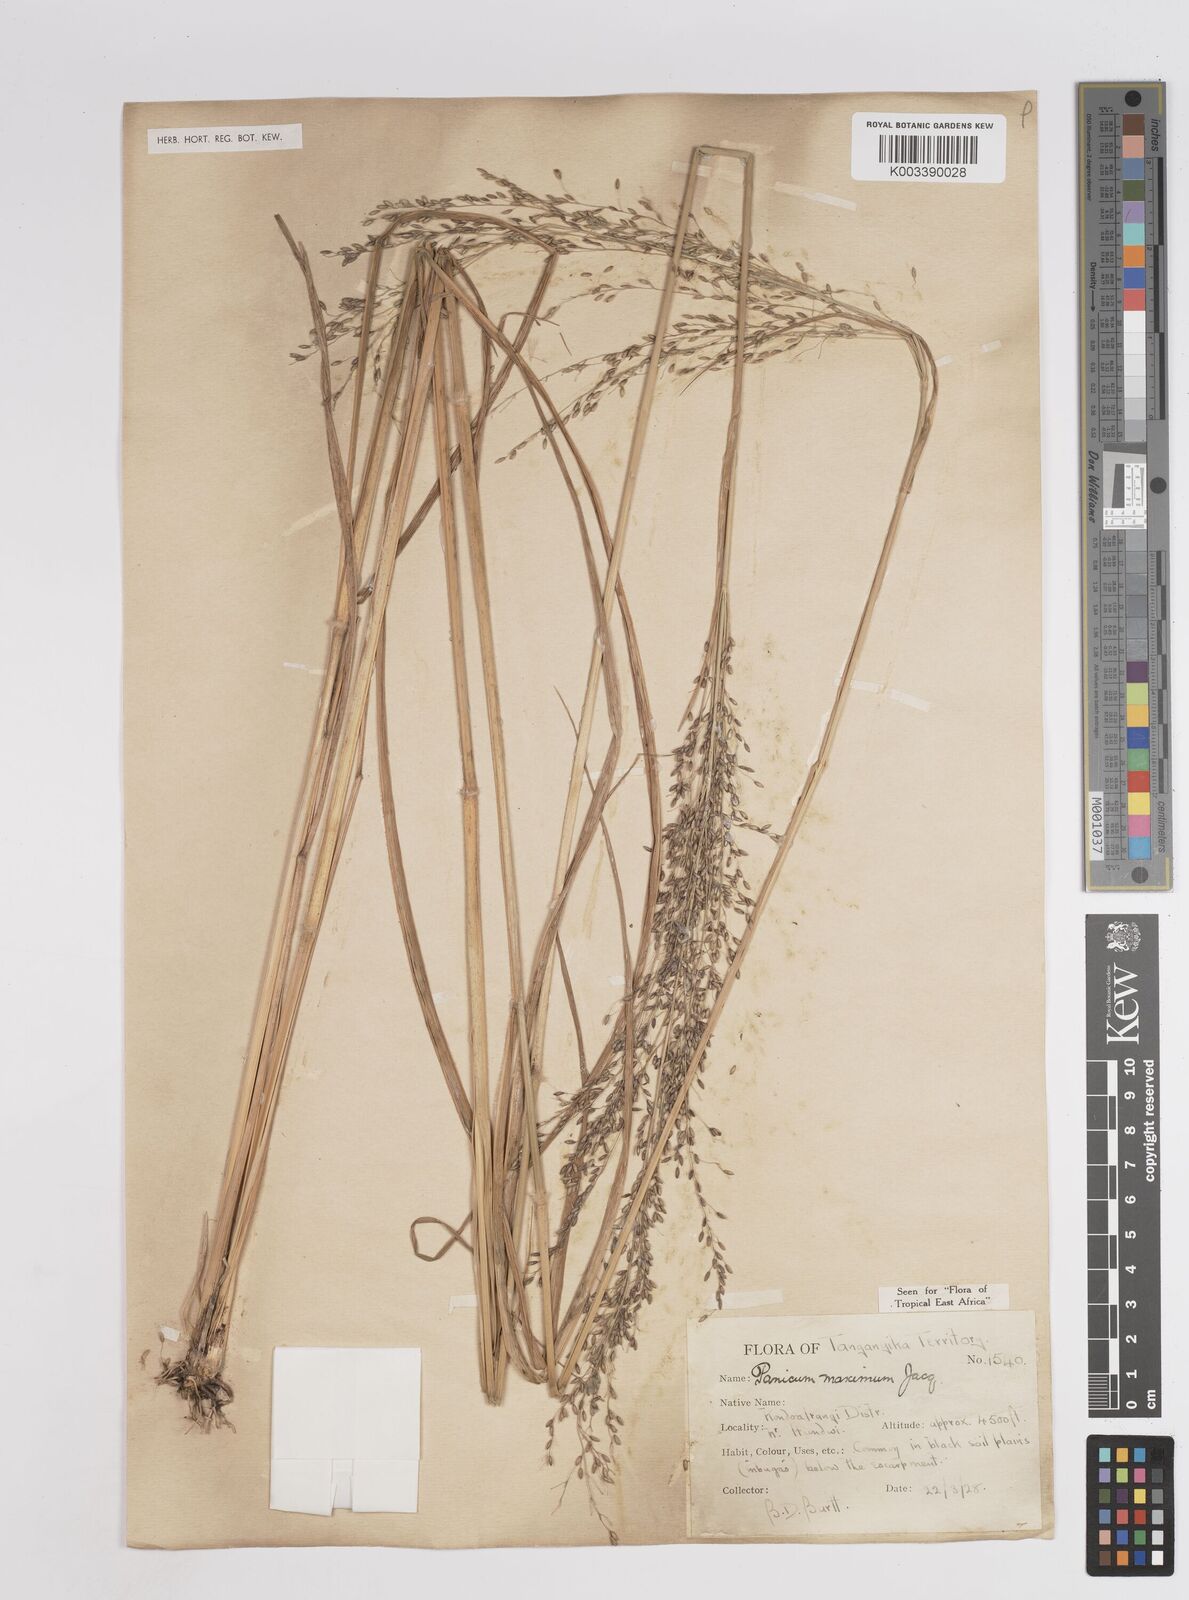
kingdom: Plantae
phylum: Tracheophyta
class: Liliopsida
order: Poales
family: Poaceae
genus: Megathyrsus
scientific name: Megathyrsus maximus
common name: Guineagrass
